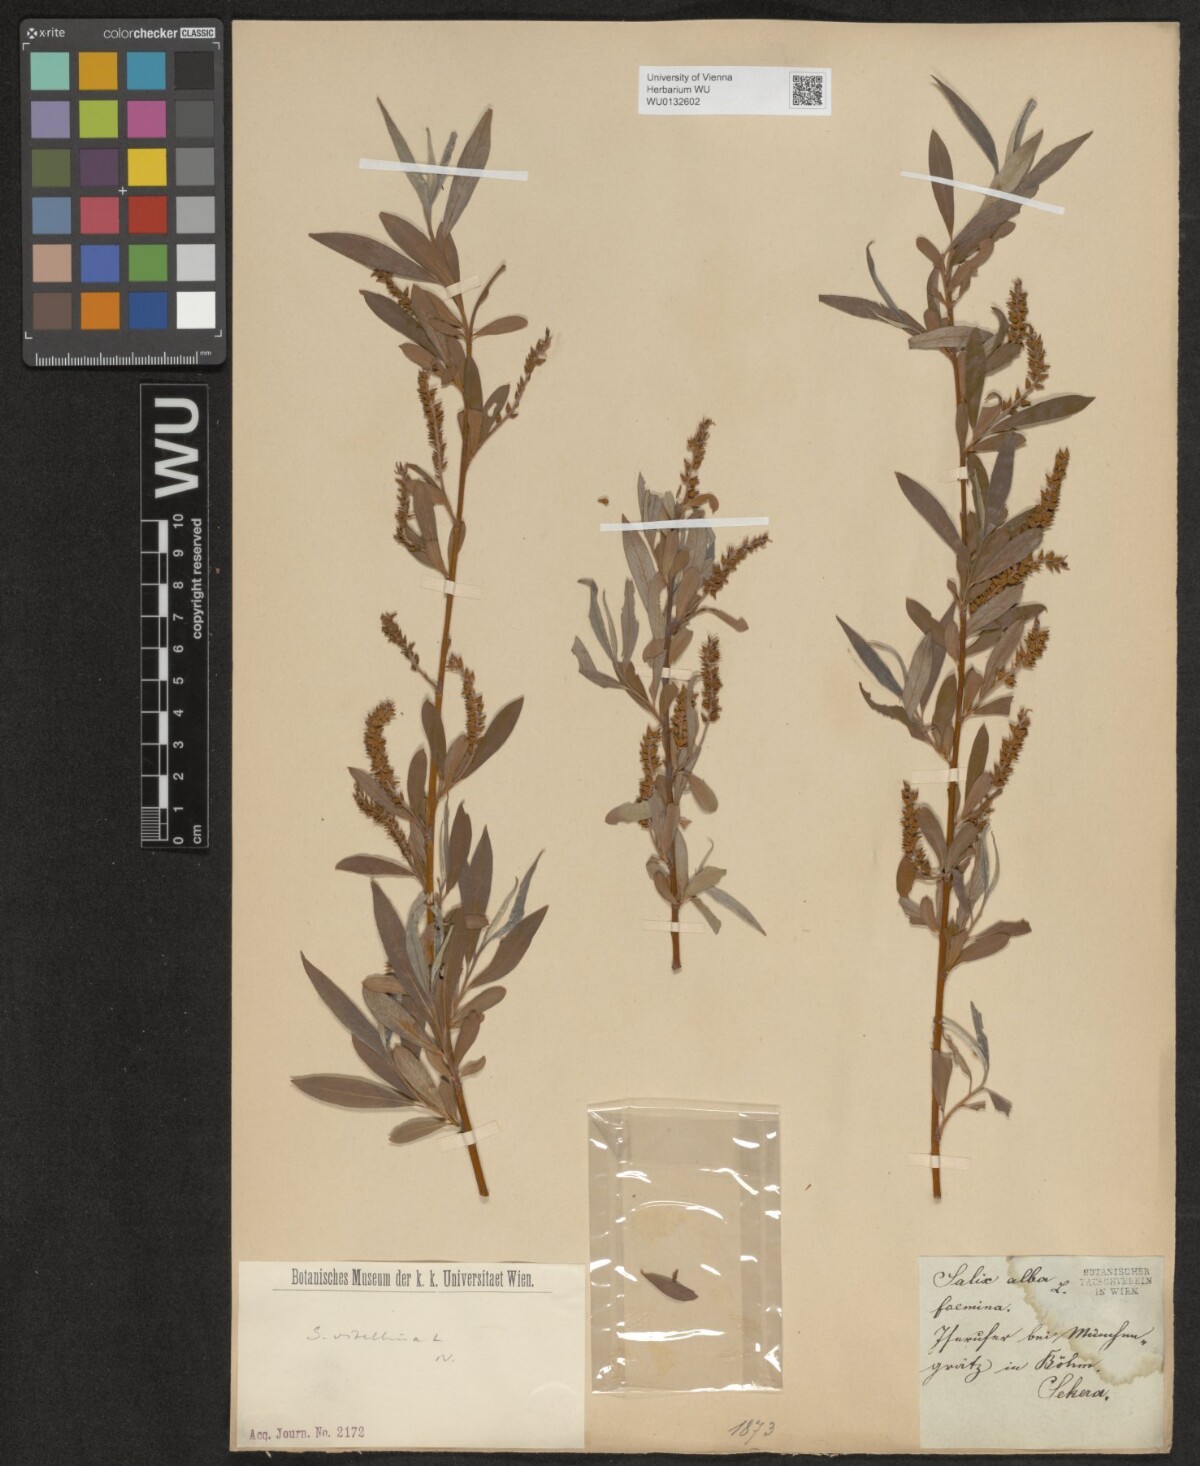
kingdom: Plantae
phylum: Tracheophyta
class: Magnoliopsida
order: Malpighiales
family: Salicaceae
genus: Salix
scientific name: Salix alba
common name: White willow
